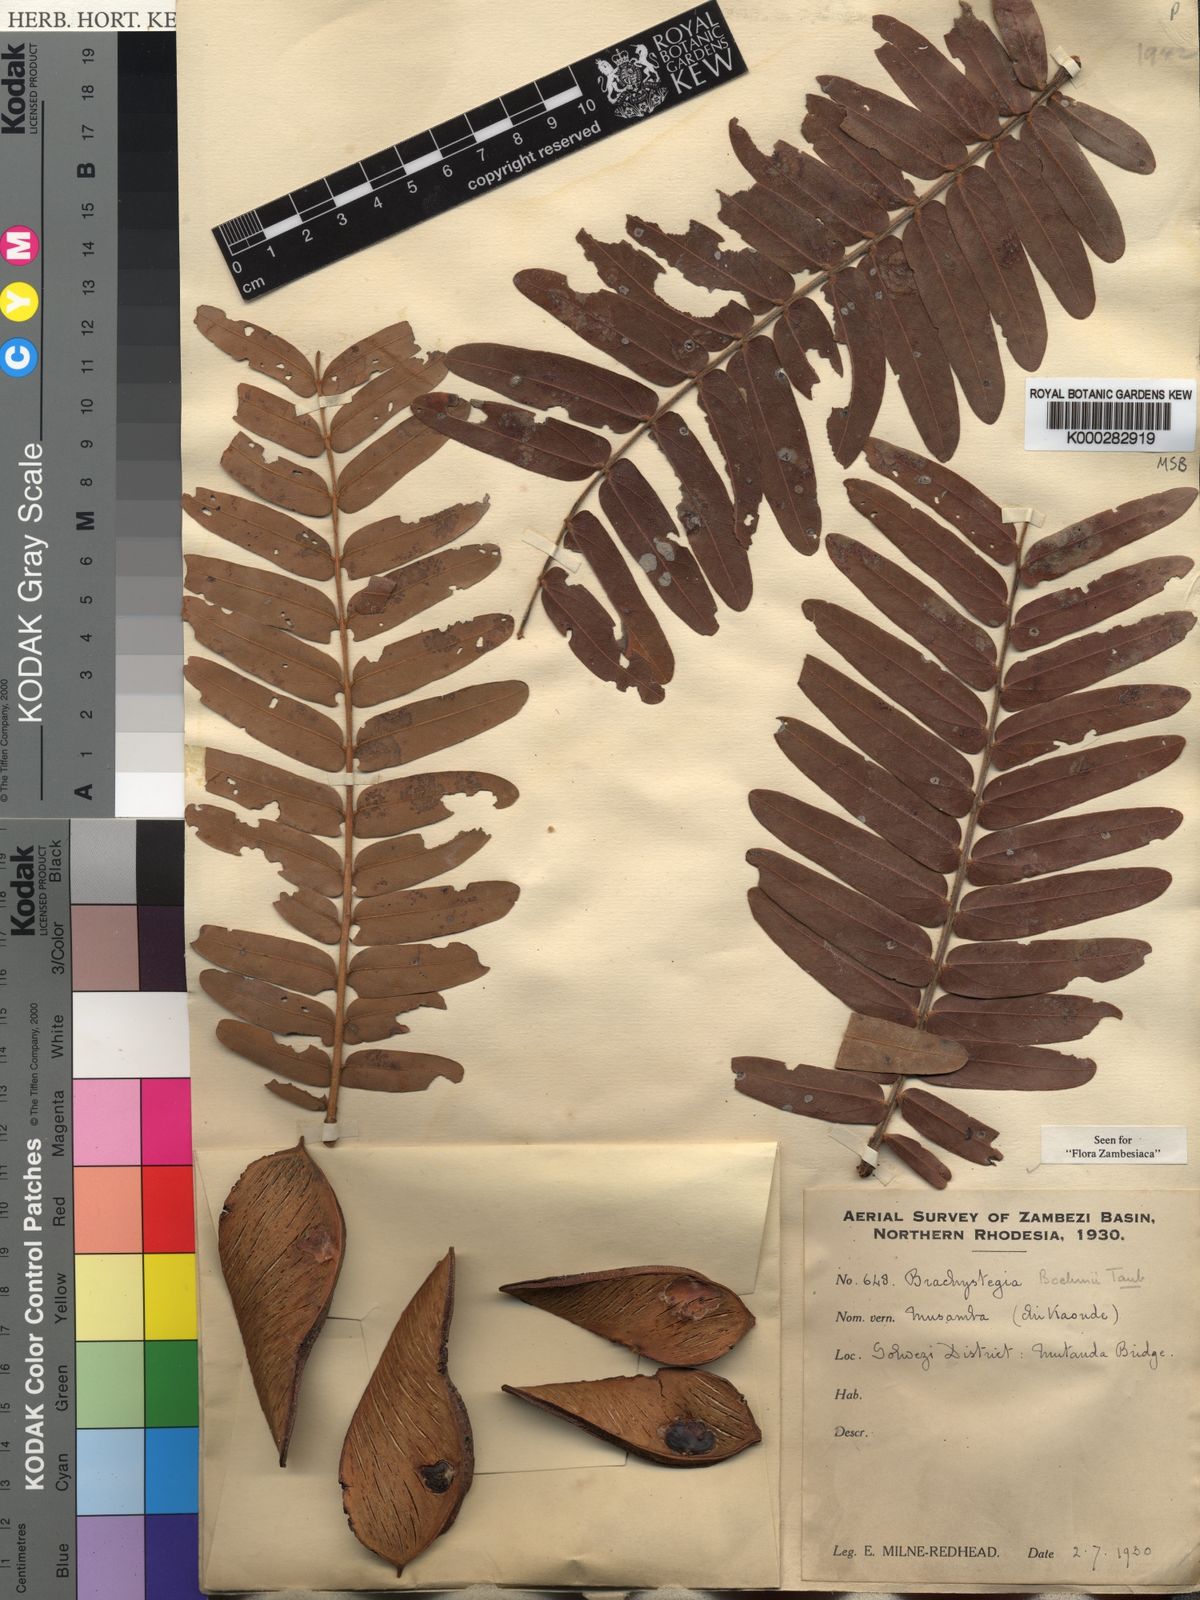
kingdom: Plantae
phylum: Tracheophyta
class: Magnoliopsida
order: Fabales
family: Fabaceae
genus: Brachystegia
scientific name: Brachystegia boehmii
